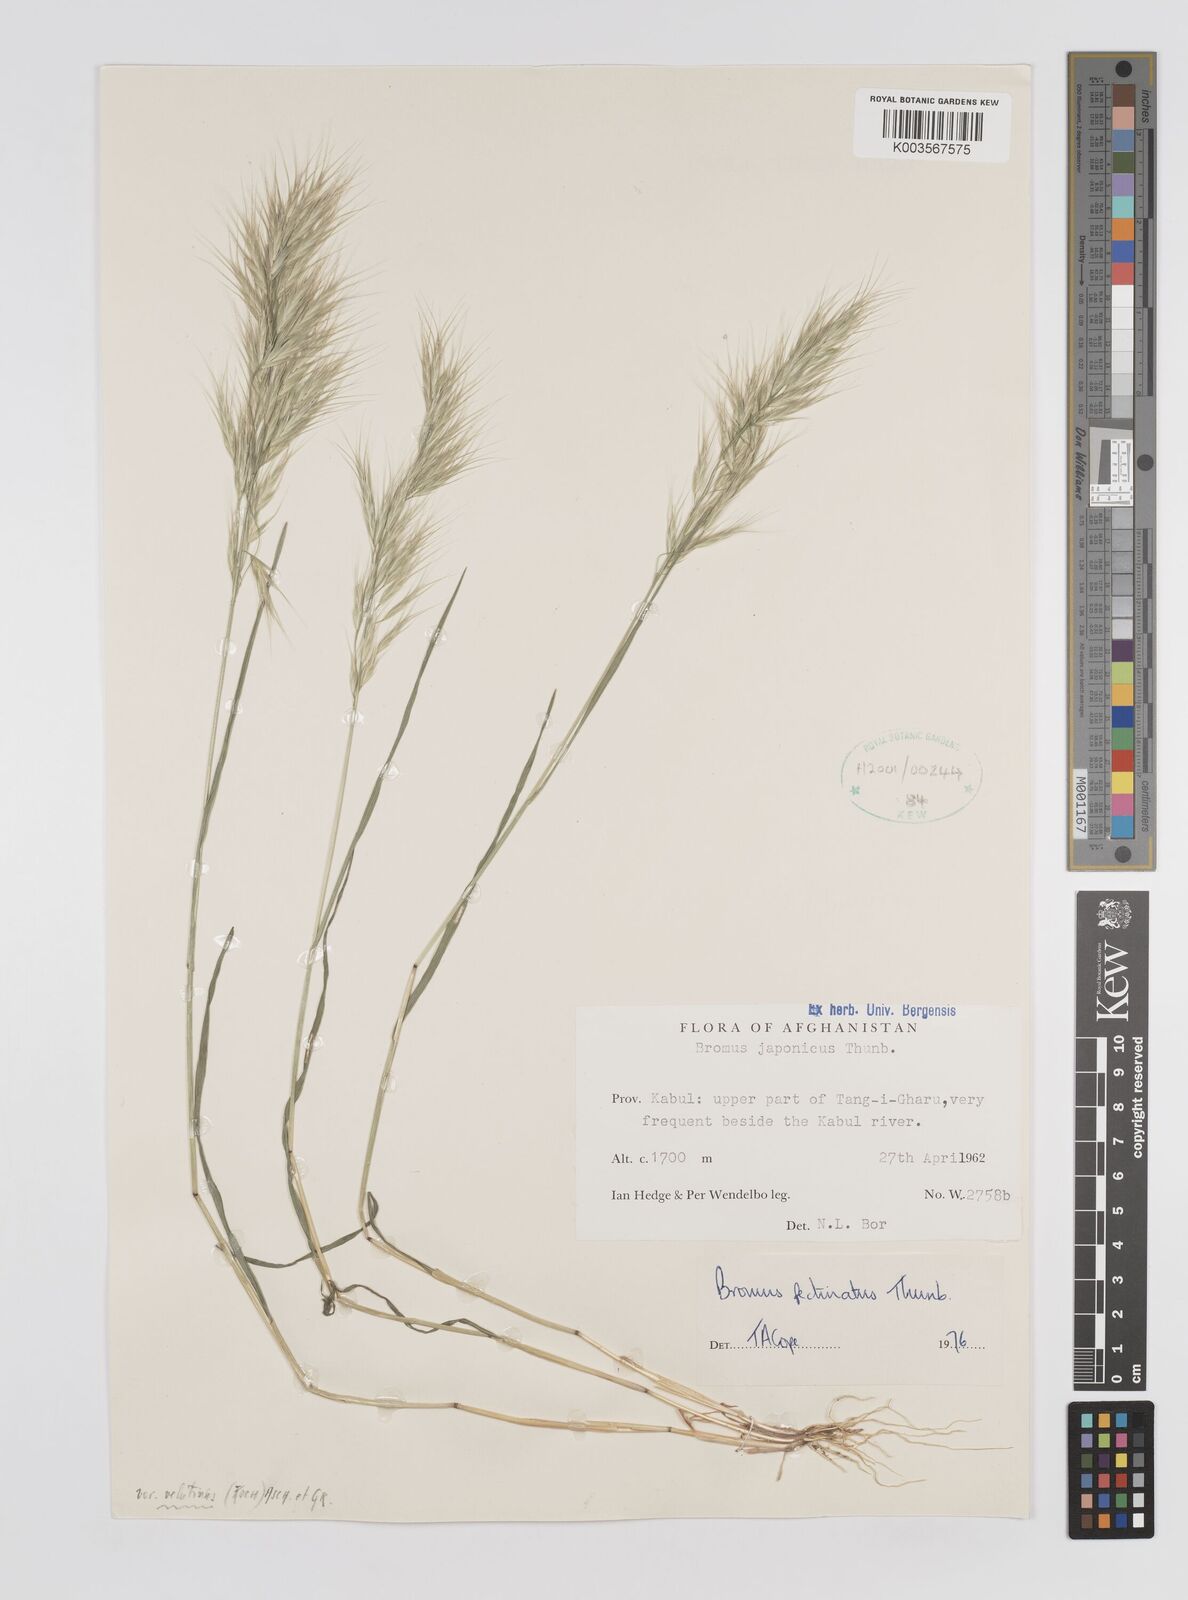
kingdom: Plantae
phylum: Tracheophyta
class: Liliopsida
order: Poales
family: Poaceae
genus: Bromus
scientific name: Bromus pectinatus
